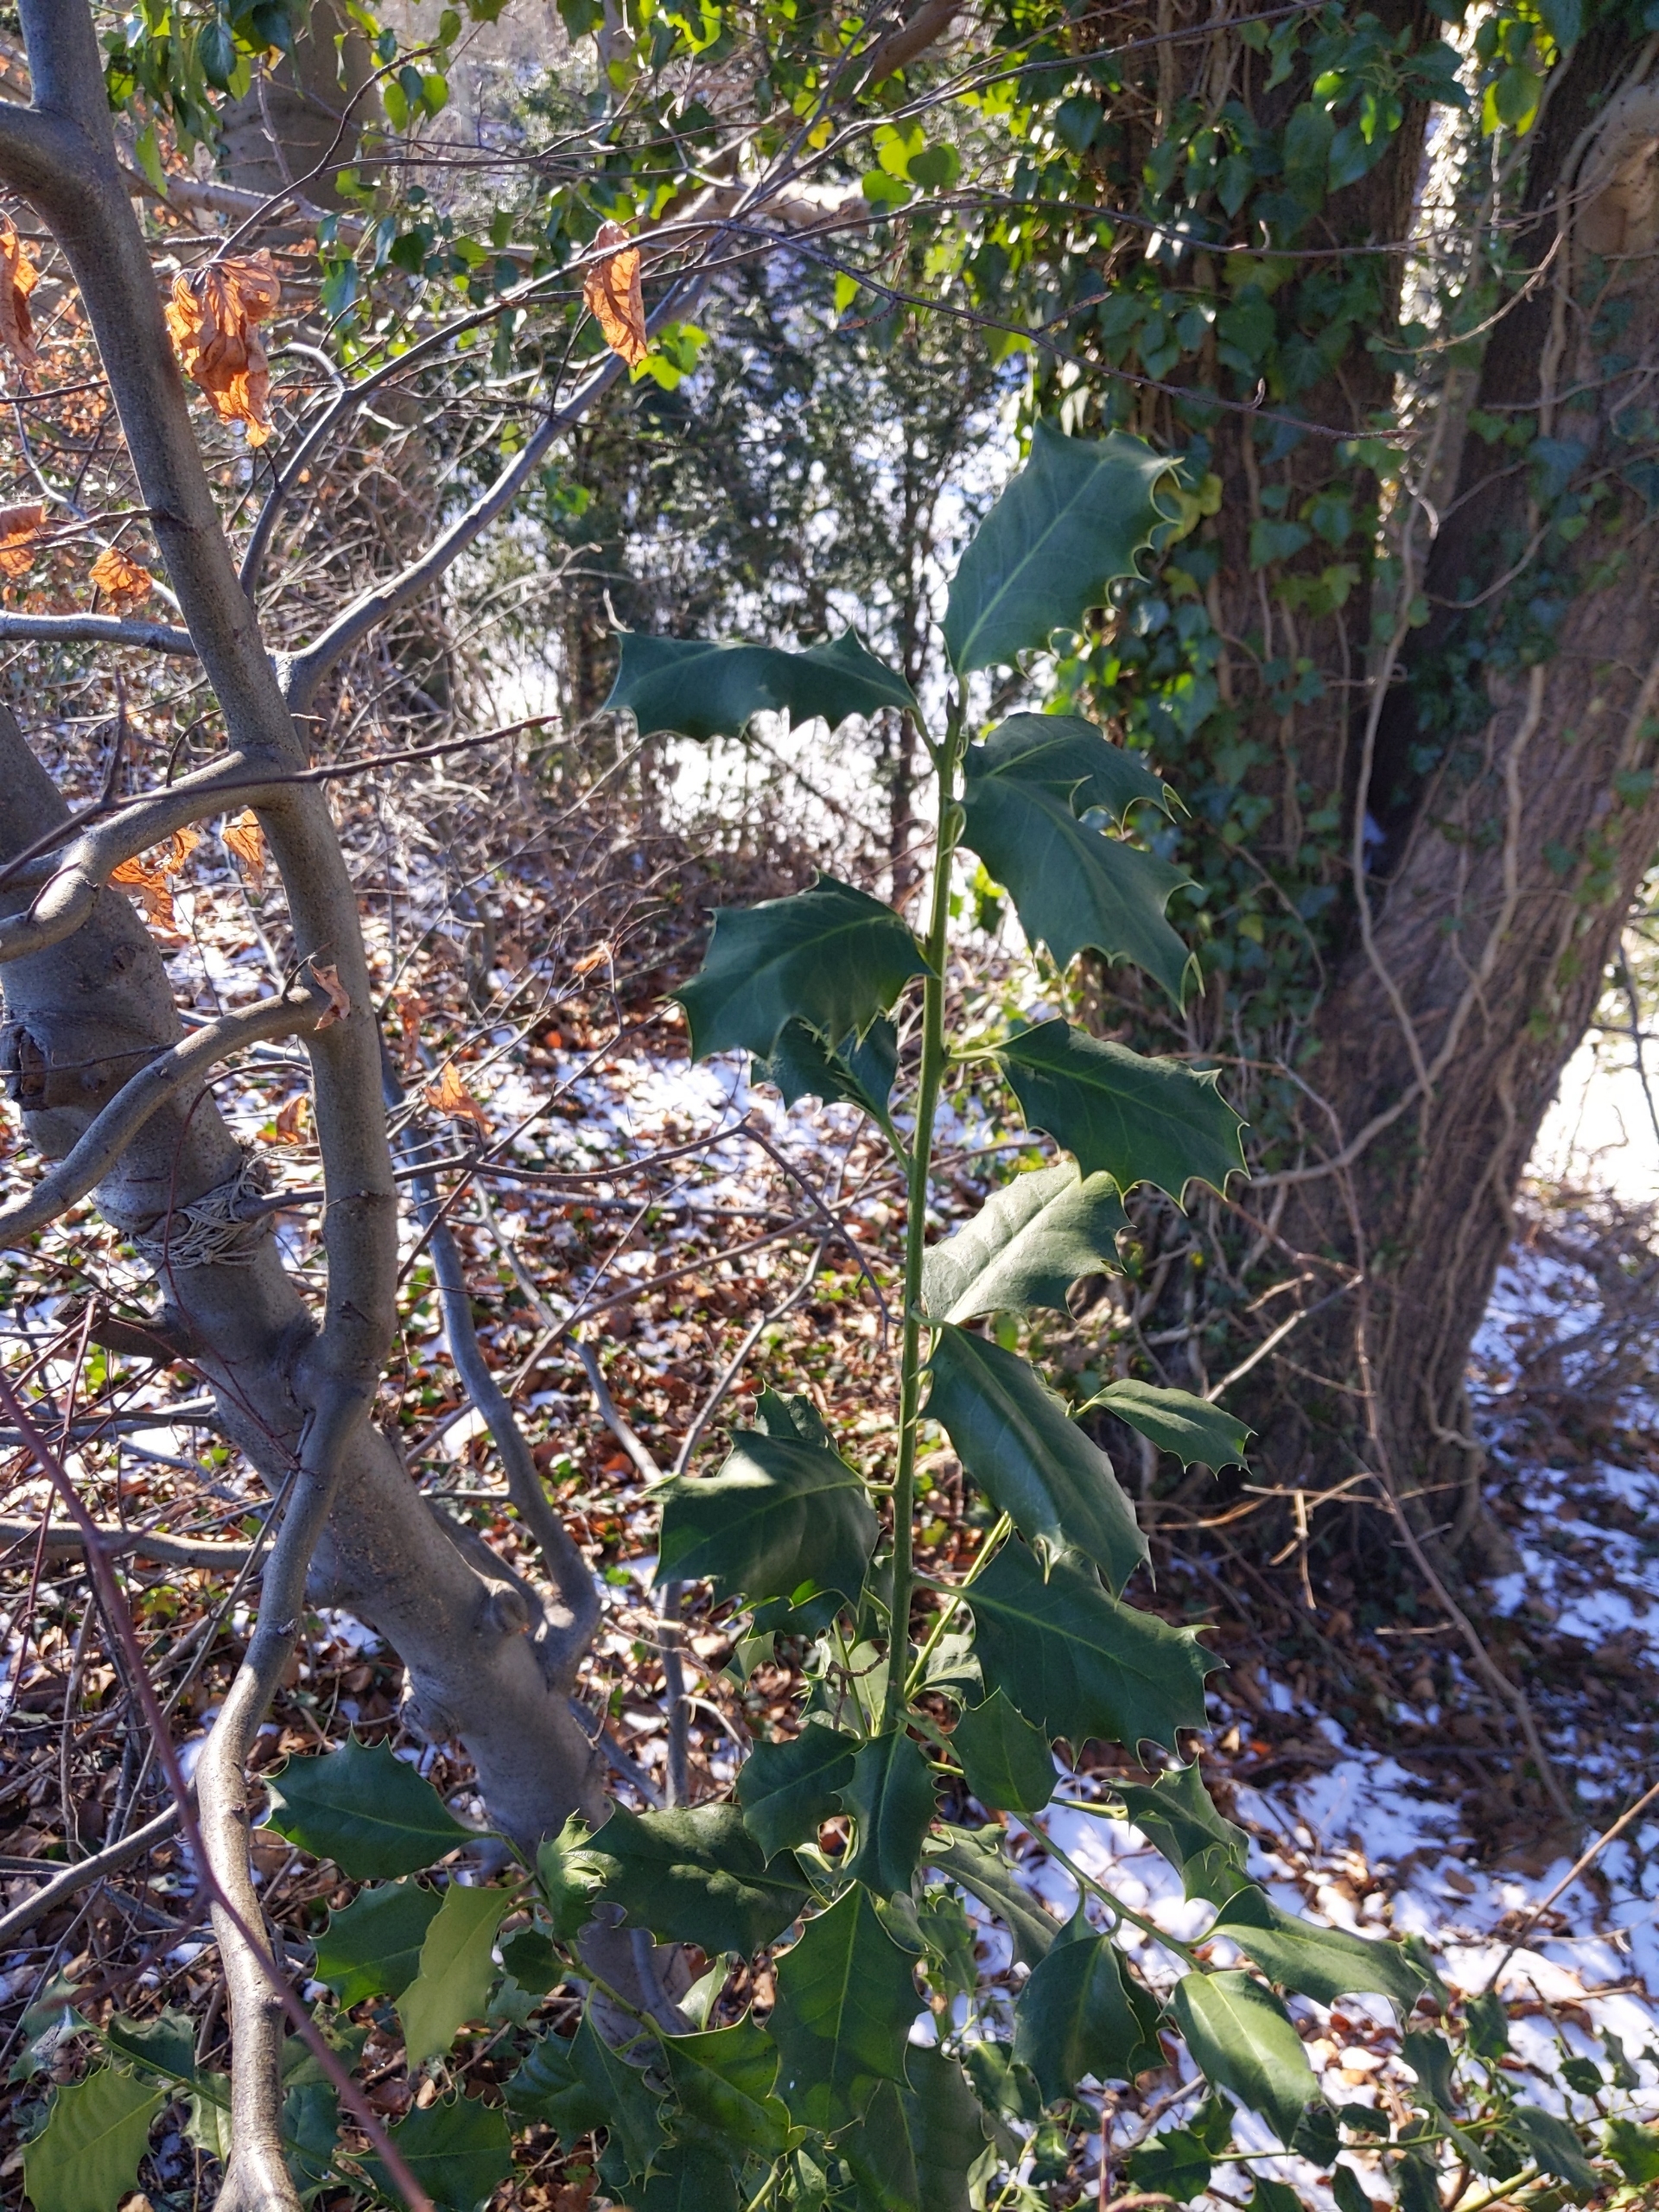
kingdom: Plantae
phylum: Tracheophyta
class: Magnoliopsida
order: Aquifoliales
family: Aquifoliaceae
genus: Ilex
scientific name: Ilex aquifolium
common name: Kristtorn
